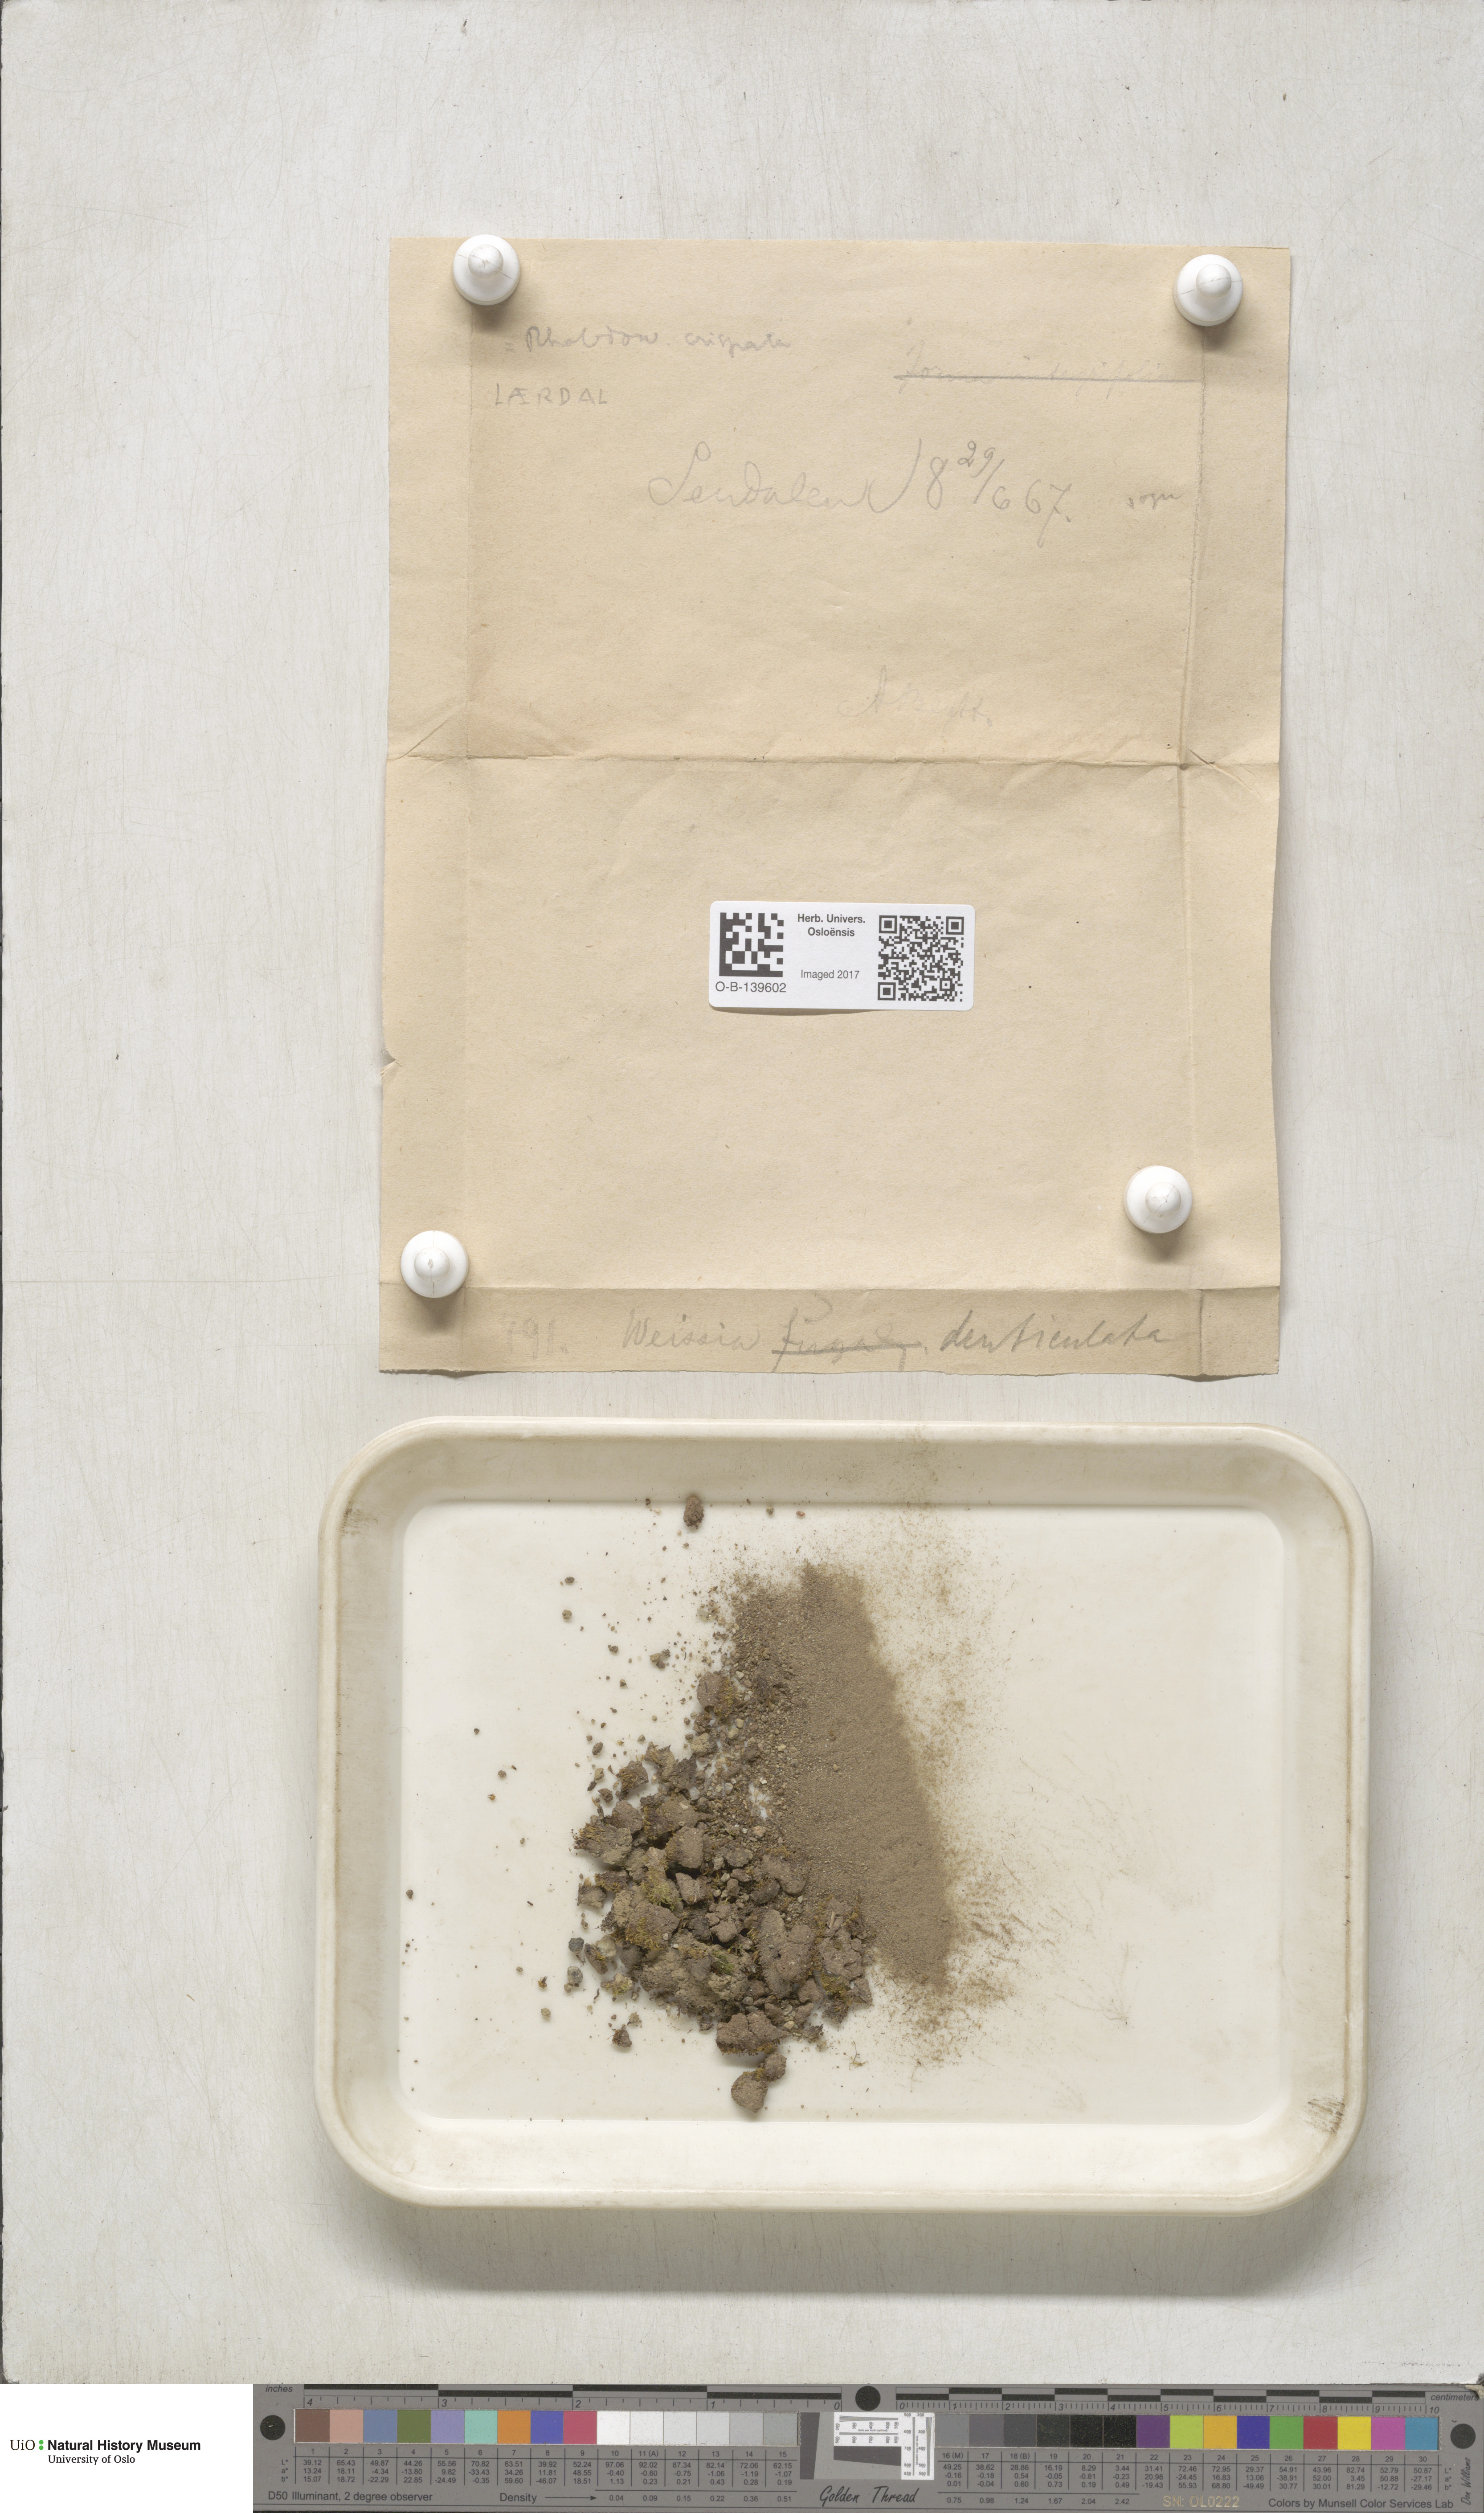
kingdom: Plantae
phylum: Bryophyta
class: Bryopsida
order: Dicranales
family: Rhabdoweisiaceae
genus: Rhabdoweisia
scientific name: Rhabdoweisia crispata
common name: Fine-toothed streak moss
